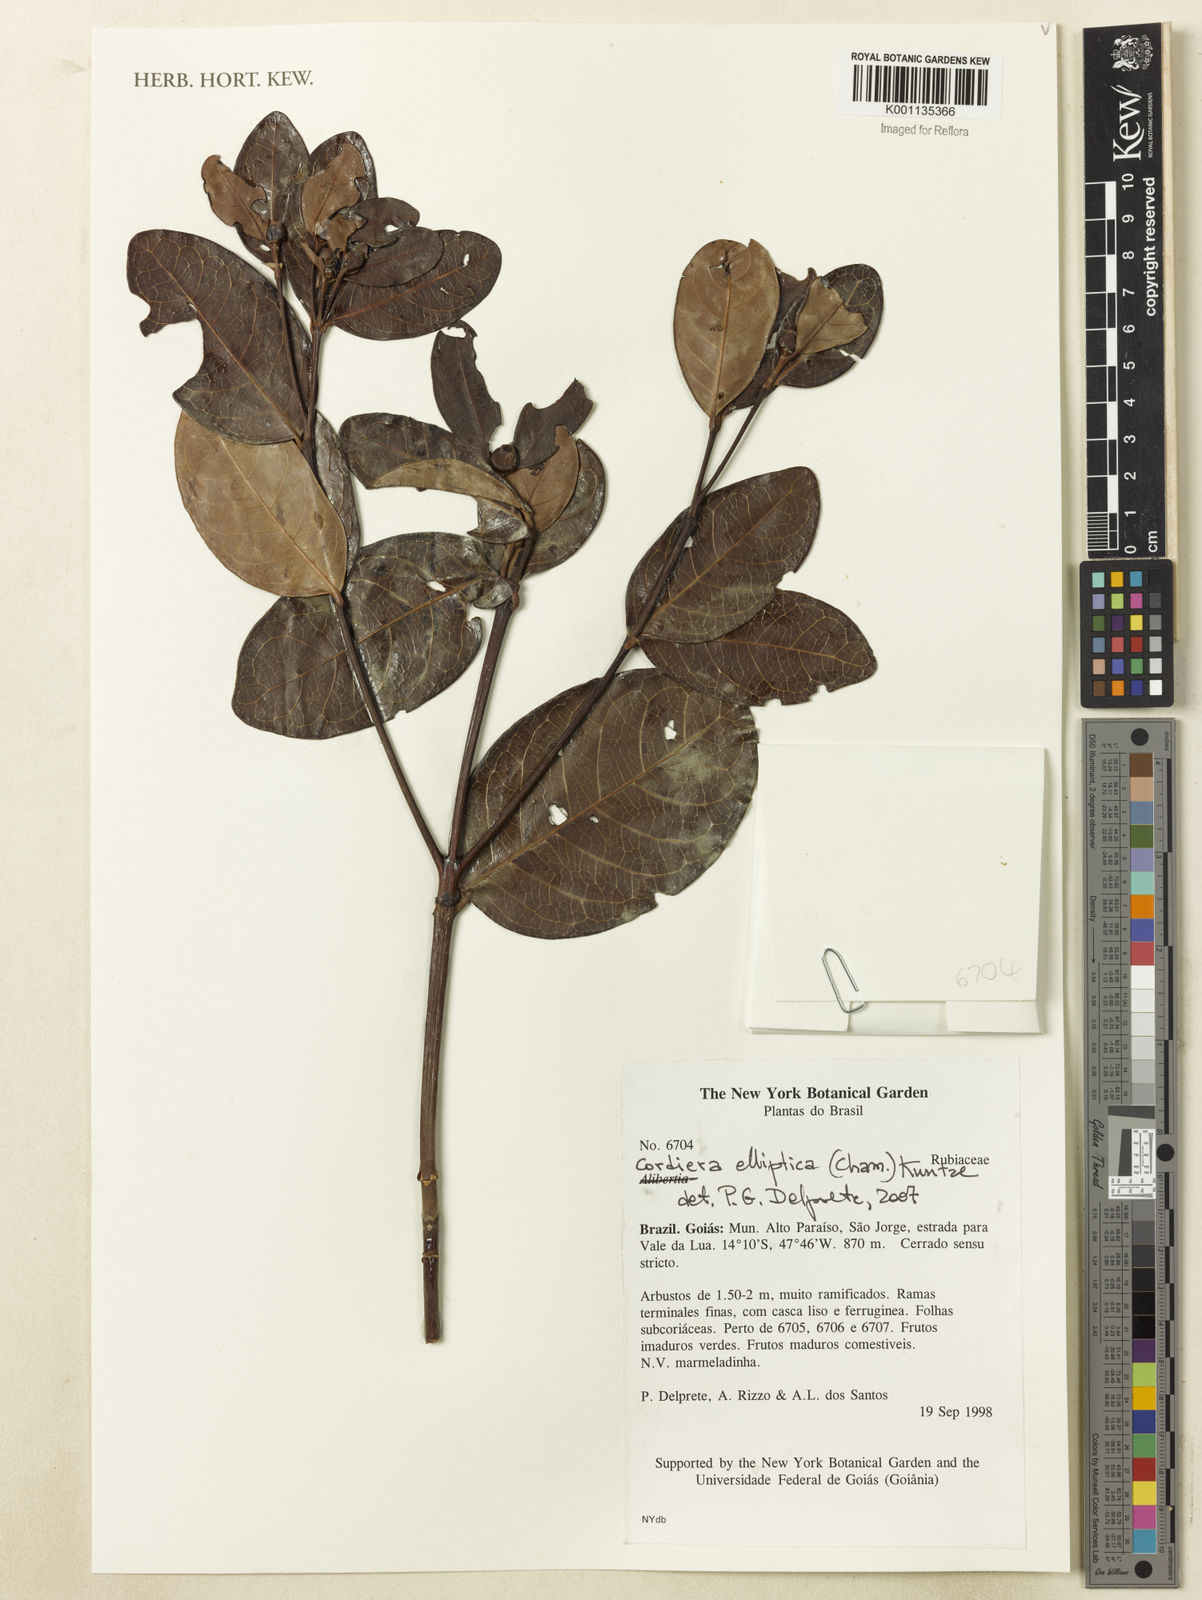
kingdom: Plantae
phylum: Tracheophyta
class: Magnoliopsida
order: Gentianales
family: Rubiaceae
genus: Cordiera
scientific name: Cordiera elliptica
